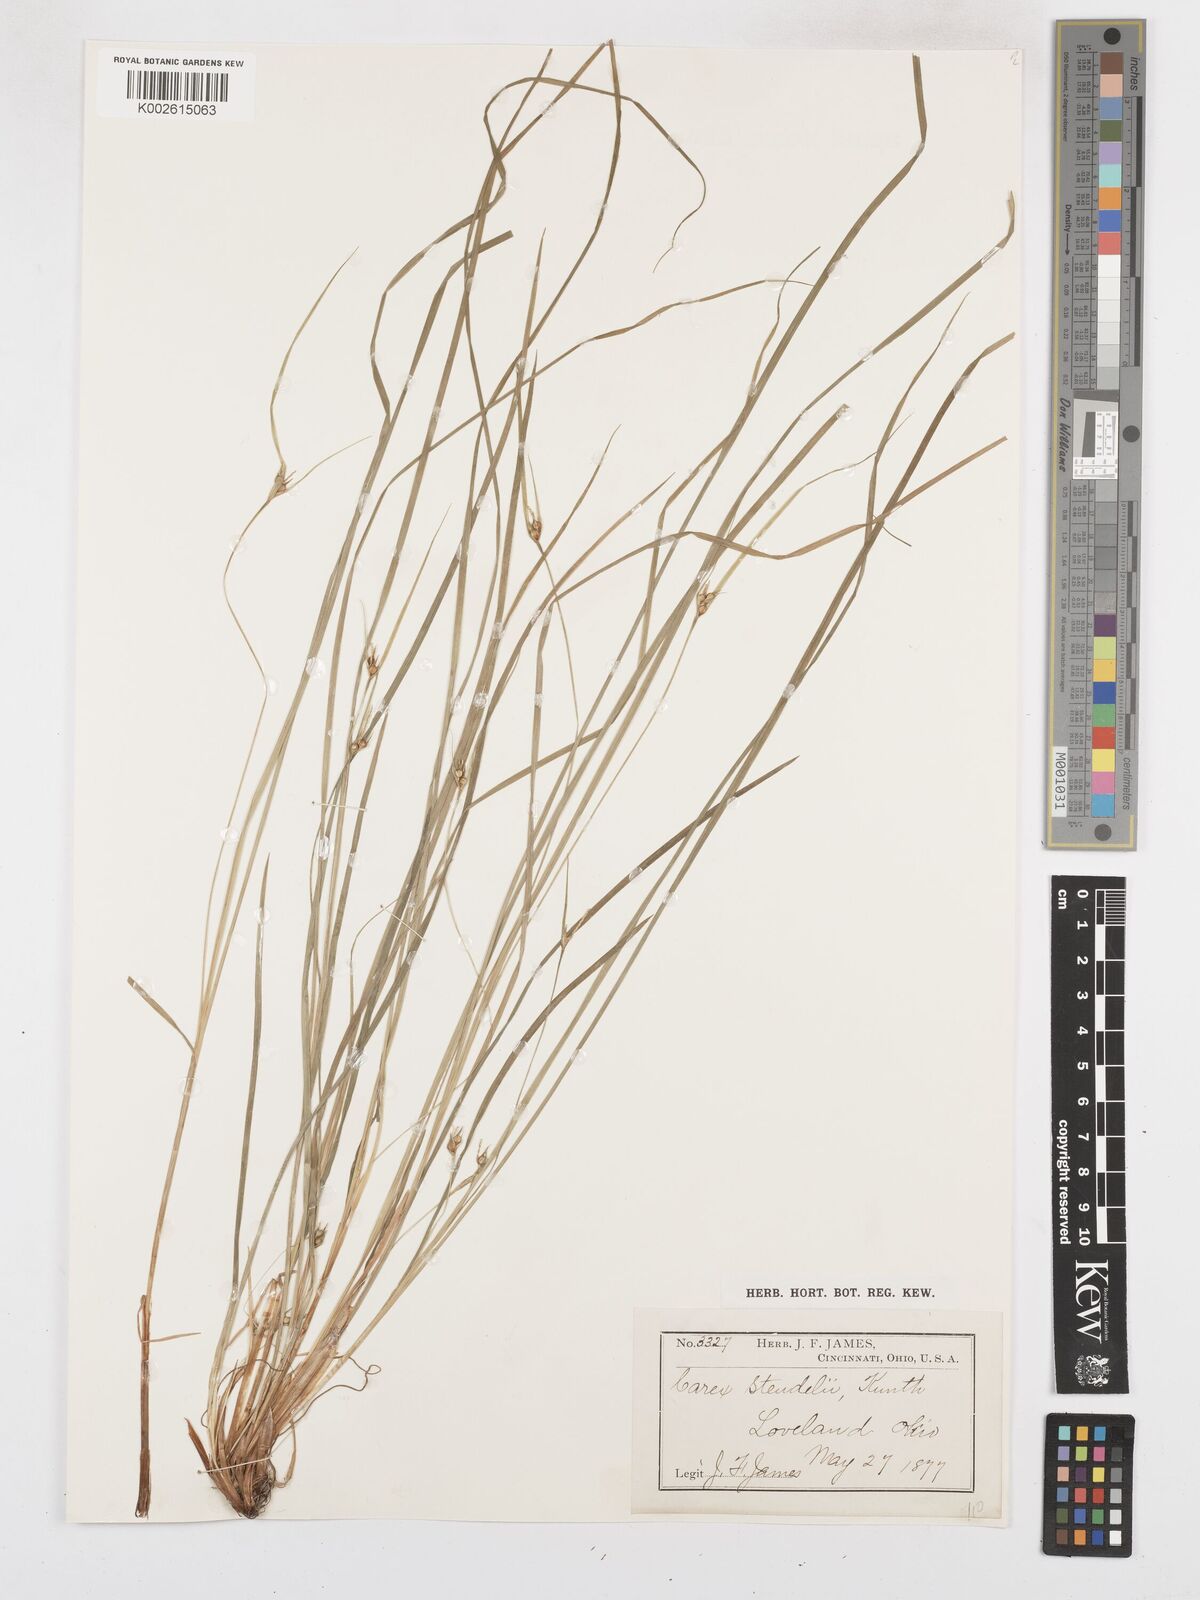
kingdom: Plantae
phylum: Tracheophyta
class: Liliopsida
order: Poales
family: Cyperaceae
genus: Carex
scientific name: Carex sterilis
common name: Dioecious sedge
